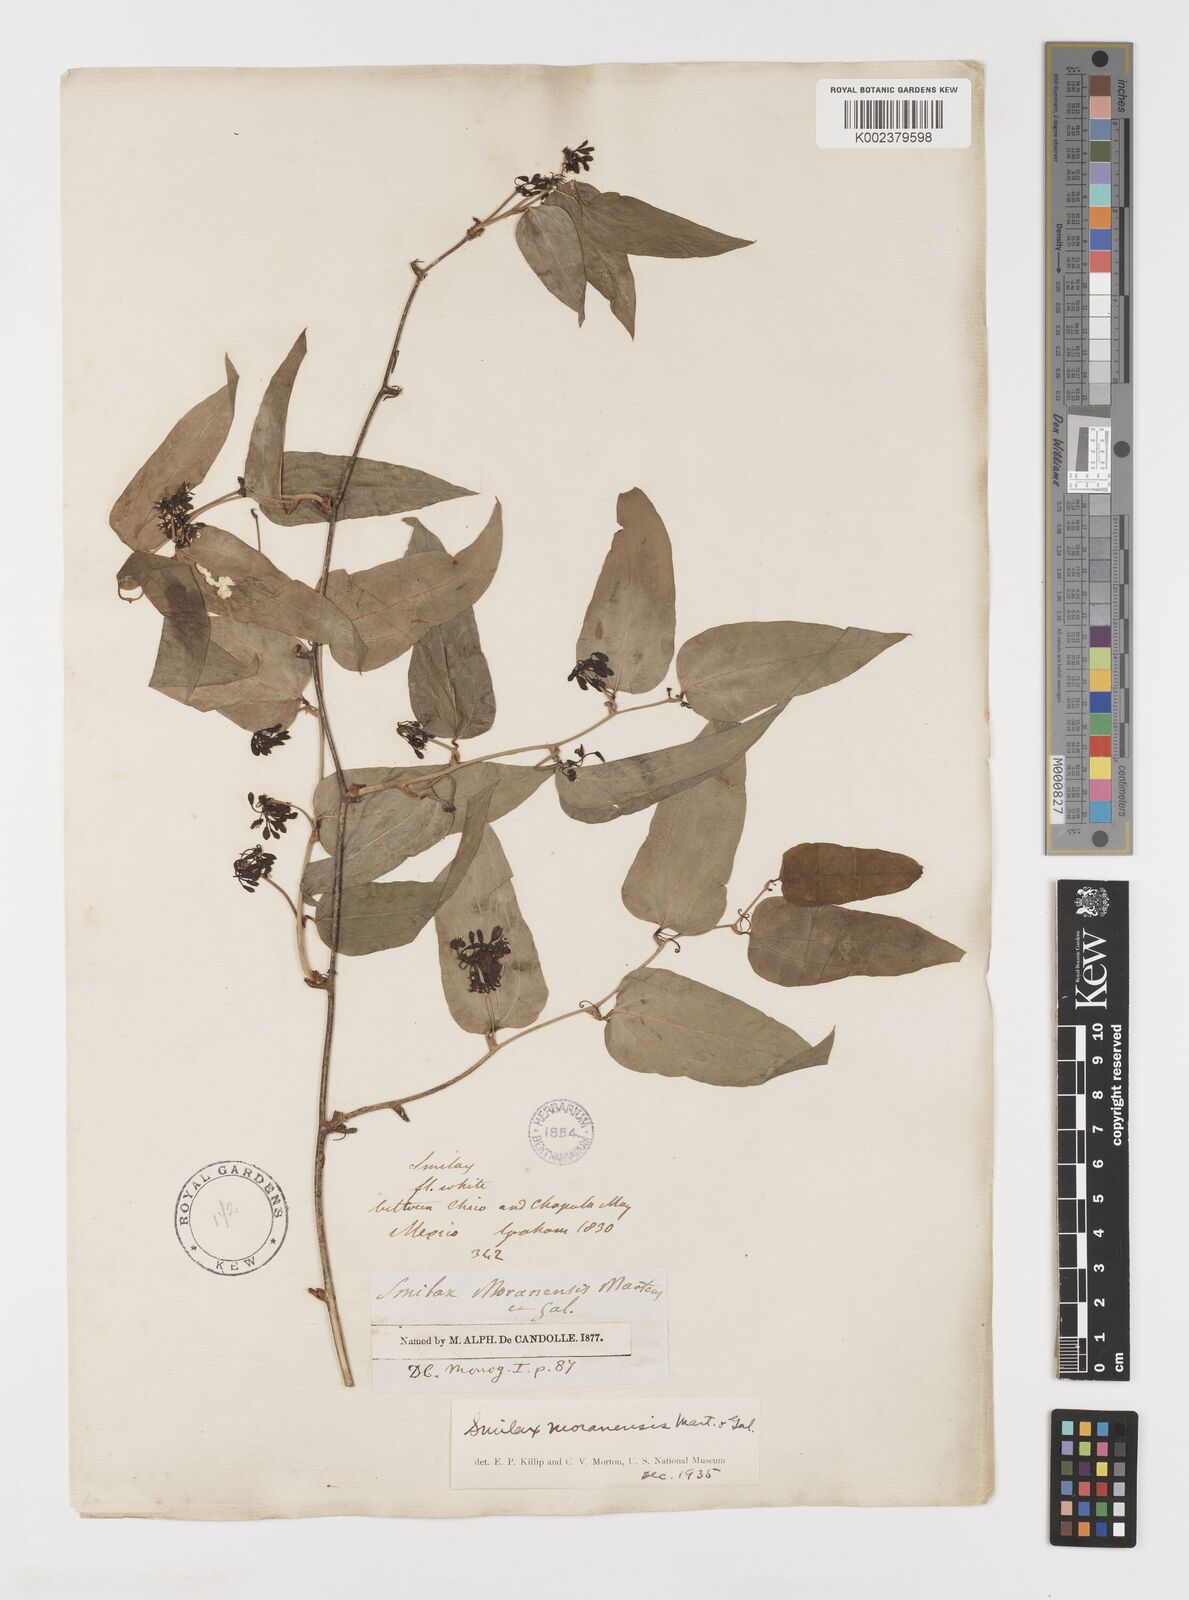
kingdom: Plantae
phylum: Tracheophyta
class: Liliopsida
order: Liliales
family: Smilacaceae
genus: Smilax
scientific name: Smilax moranensis
